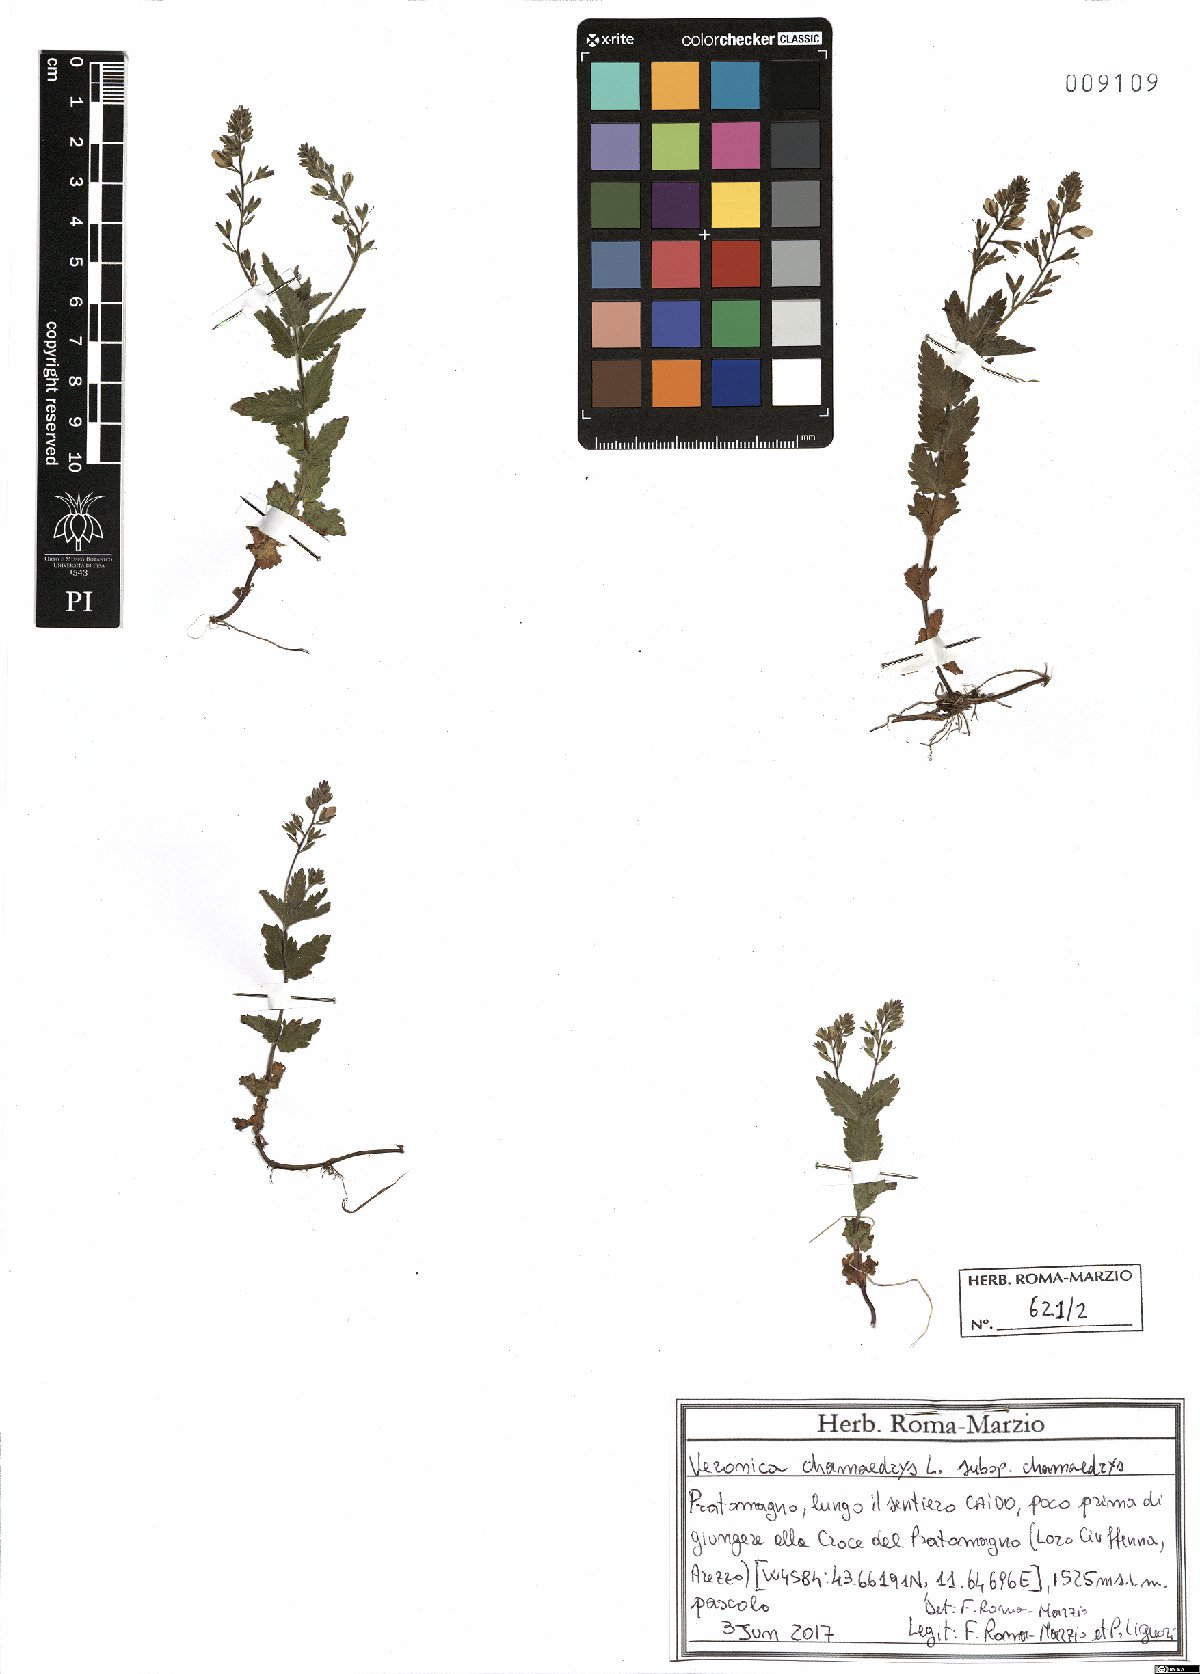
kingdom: Plantae
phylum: Tracheophyta
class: Magnoliopsida
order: Lamiales
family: Plantaginaceae
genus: Veronica
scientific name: Veronica chamaedrys
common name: Germander speedwell
